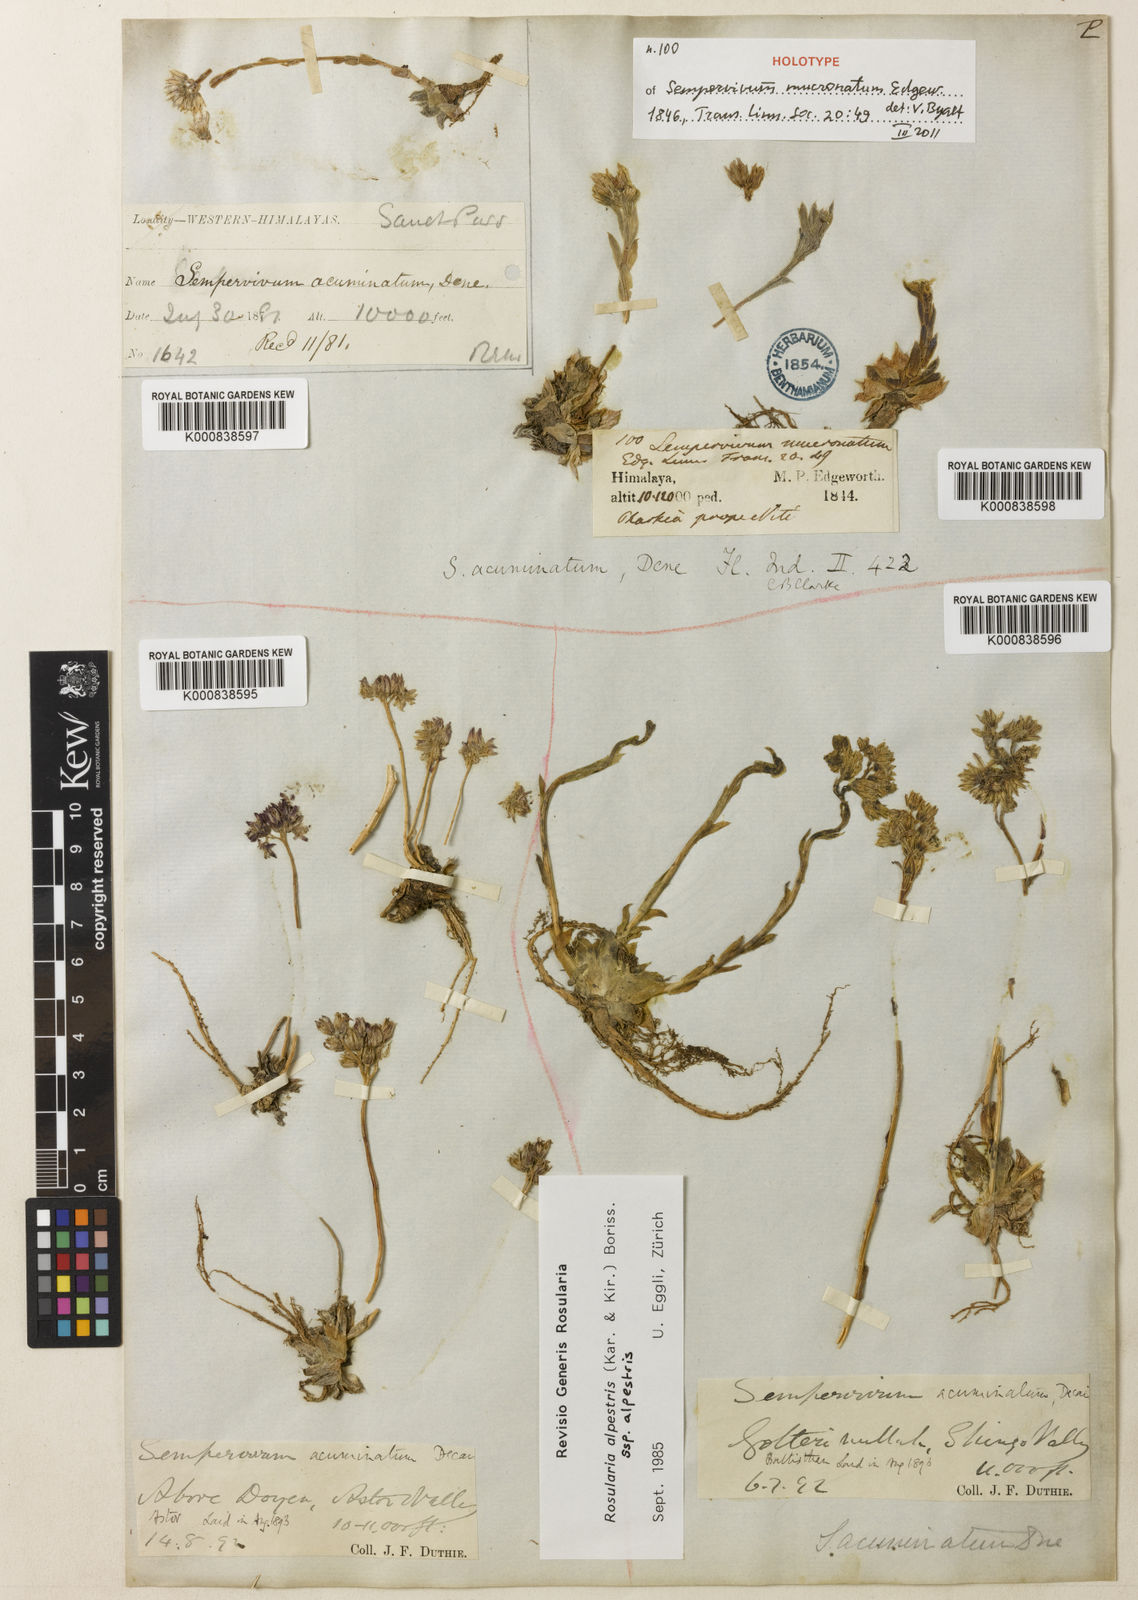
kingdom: Plantae
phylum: Tracheophyta
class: Magnoliopsida
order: Saxifragales
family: Crassulaceae
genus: Rosularia
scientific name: Rosularia alpestris
